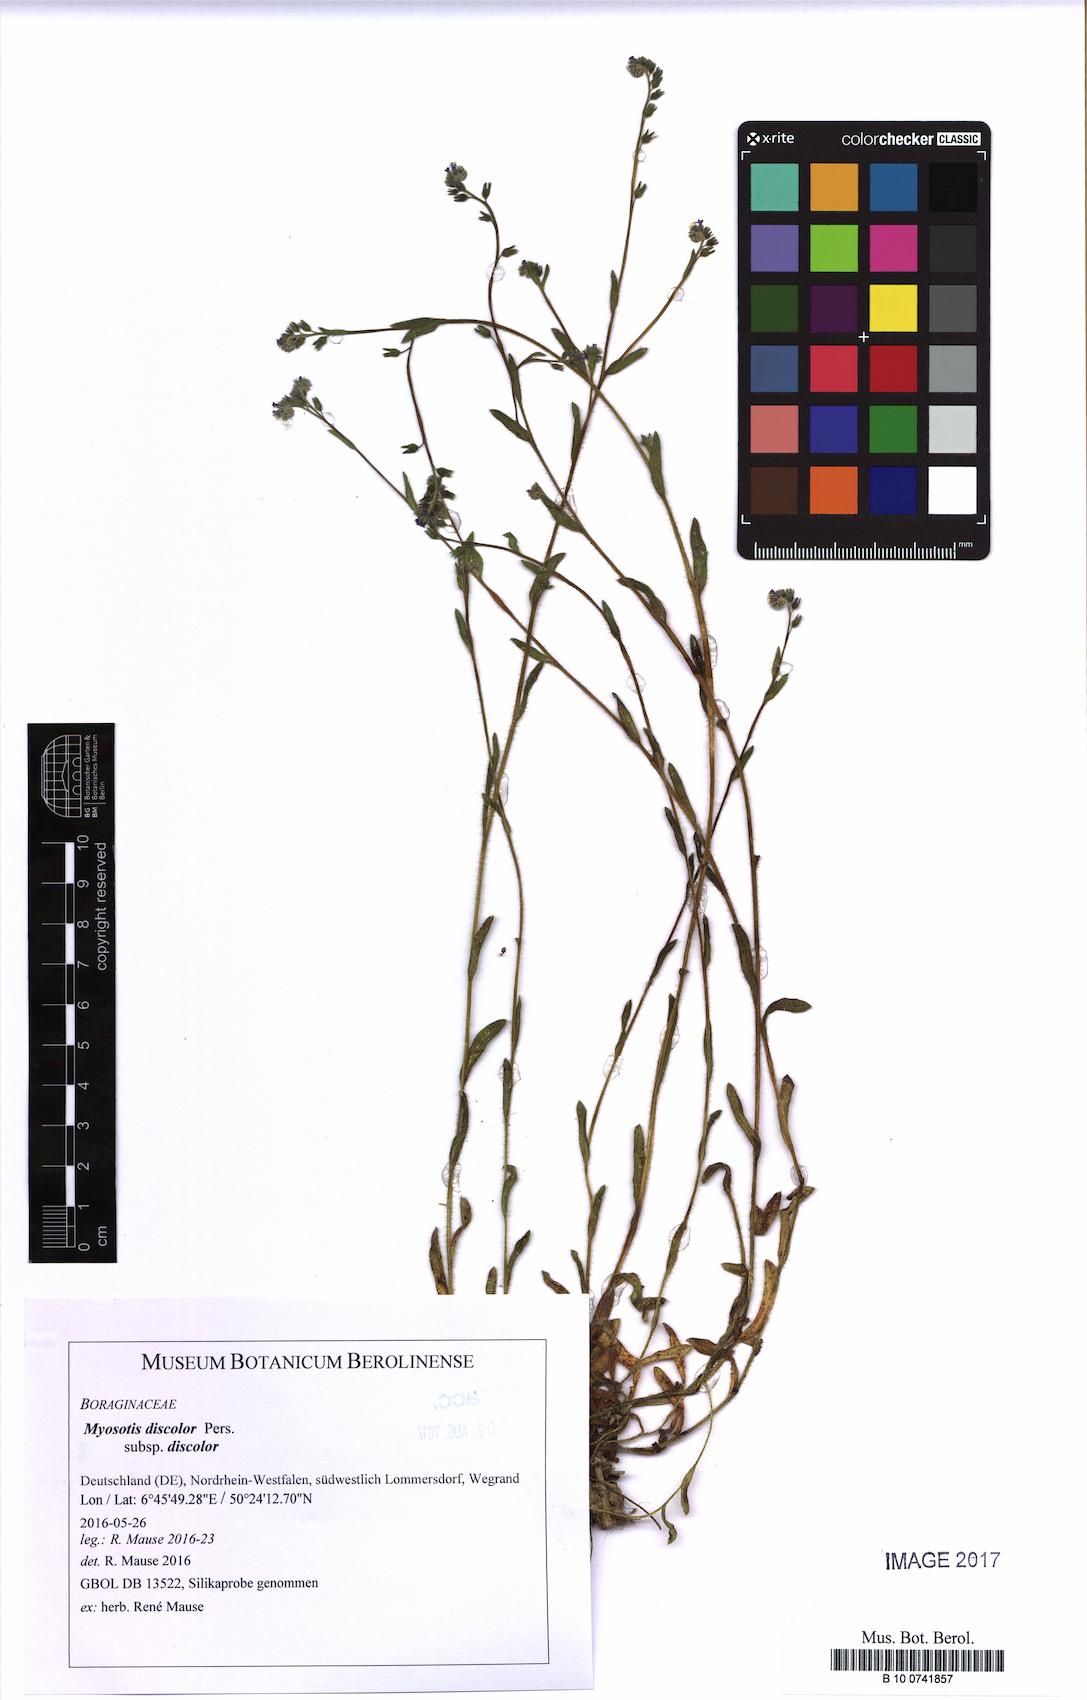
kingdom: Plantae
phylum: Tracheophyta
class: Magnoliopsida
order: Boraginales
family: Boraginaceae
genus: Myosotis
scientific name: Myosotis discolor
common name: Changing forget-me-not
